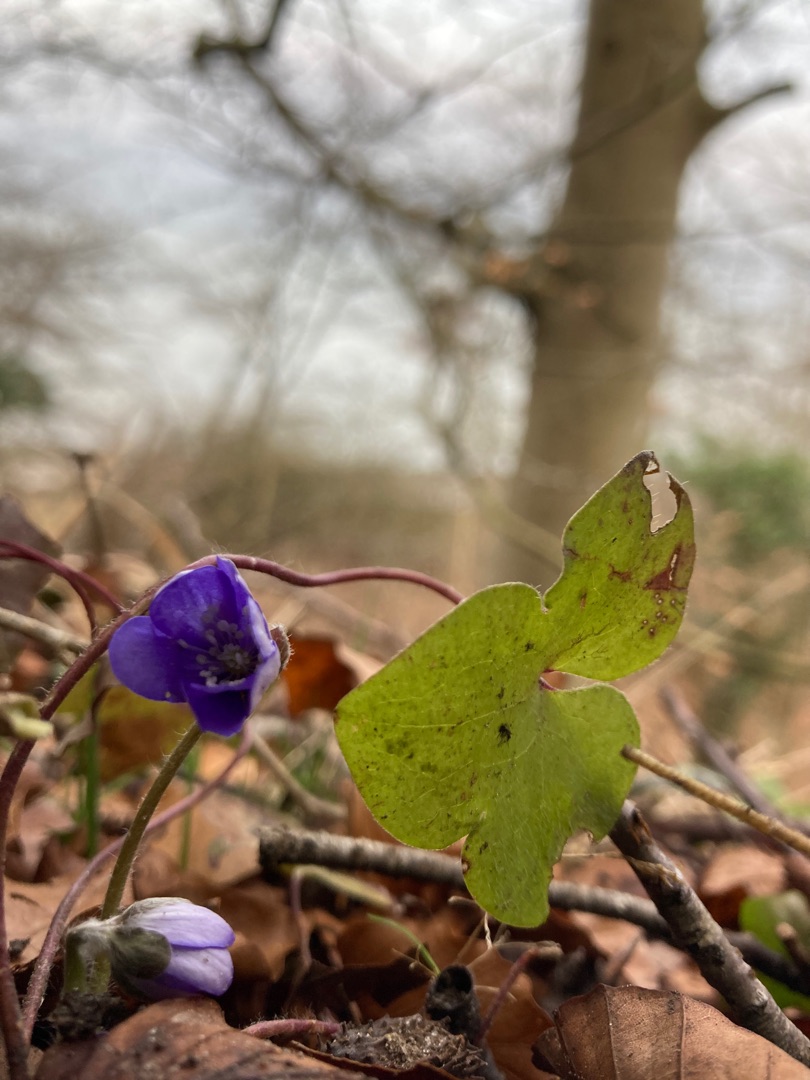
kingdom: Plantae
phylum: Tracheophyta
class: Magnoliopsida
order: Ranunculales
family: Ranunculaceae
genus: Hepatica
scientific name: Hepatica nobilis
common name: Blå anemone
